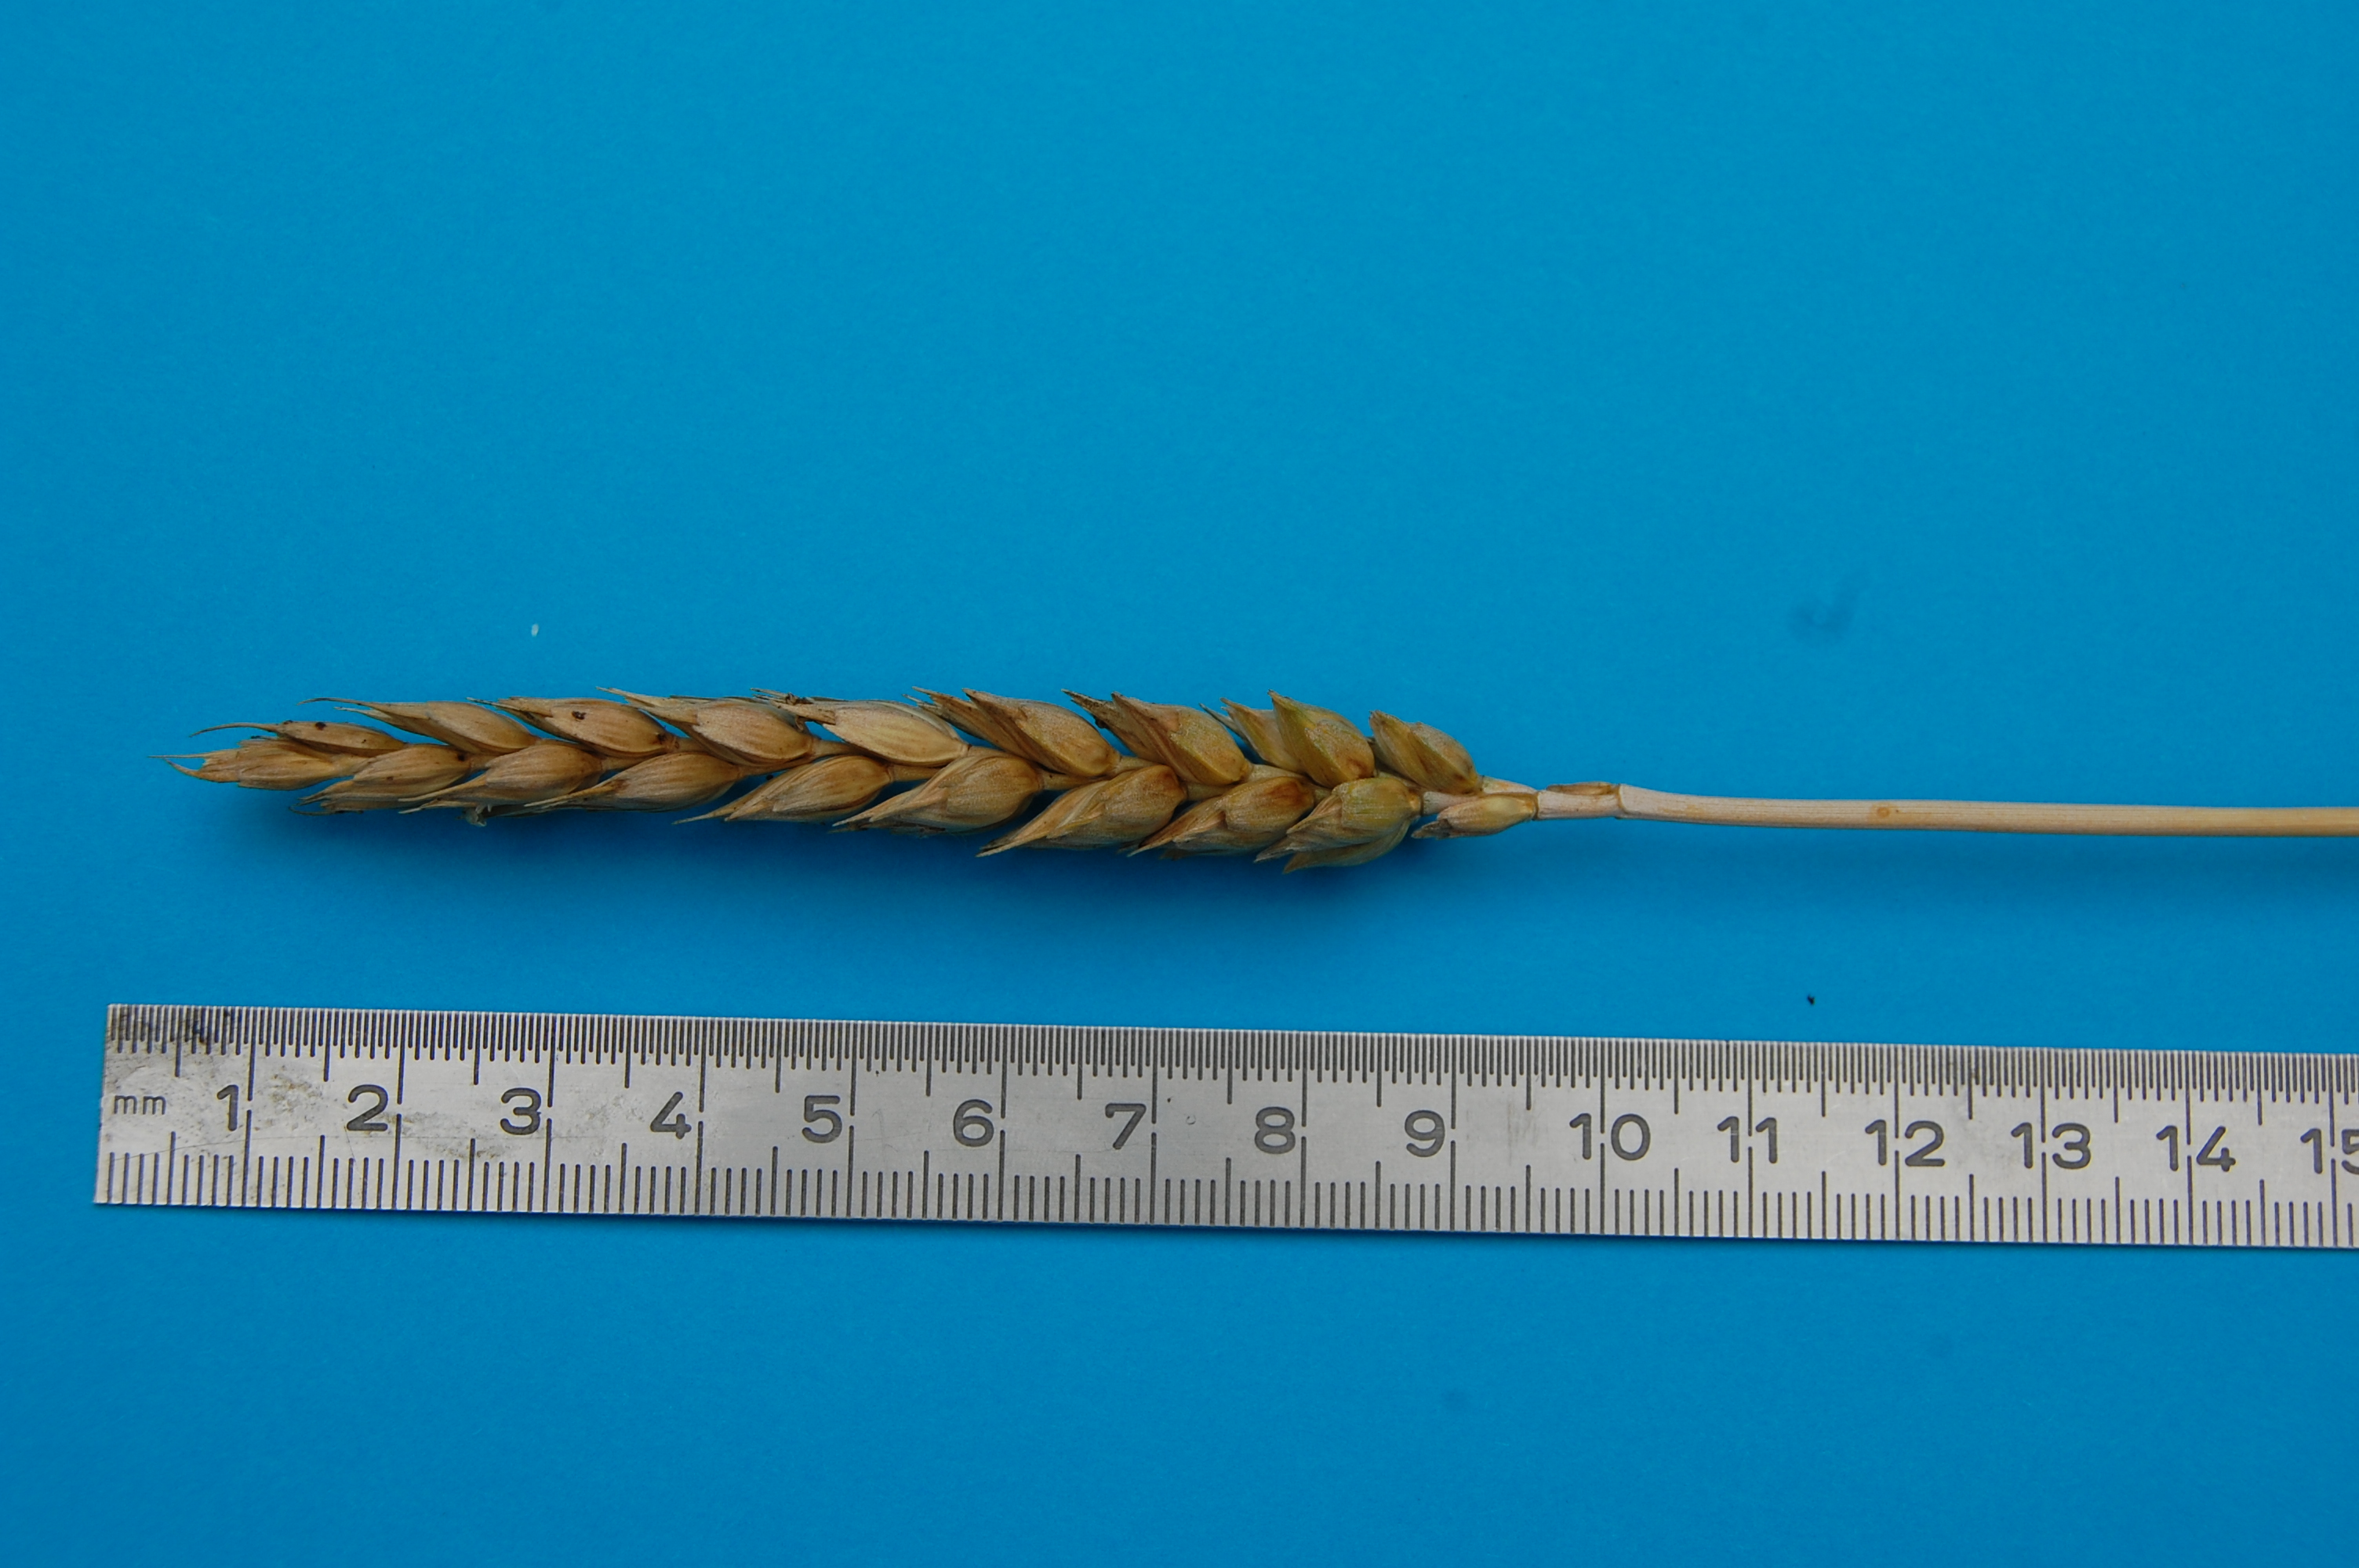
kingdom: Plantae
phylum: Tracheophyta
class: Liliopsida
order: Poales
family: Poaceae
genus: Triticum
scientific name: Triticum aestivum
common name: Common wheat
